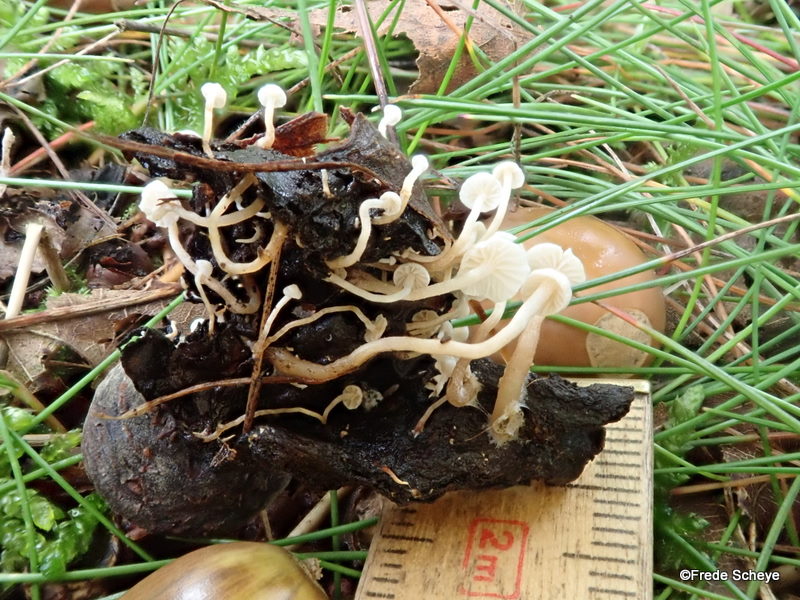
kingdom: Fungi
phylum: Basidiomycota
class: Agaricomycetes
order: Agaricales
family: Tricholomataceae
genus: Collybia
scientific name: Collybia cirrhata
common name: silke-lighat
